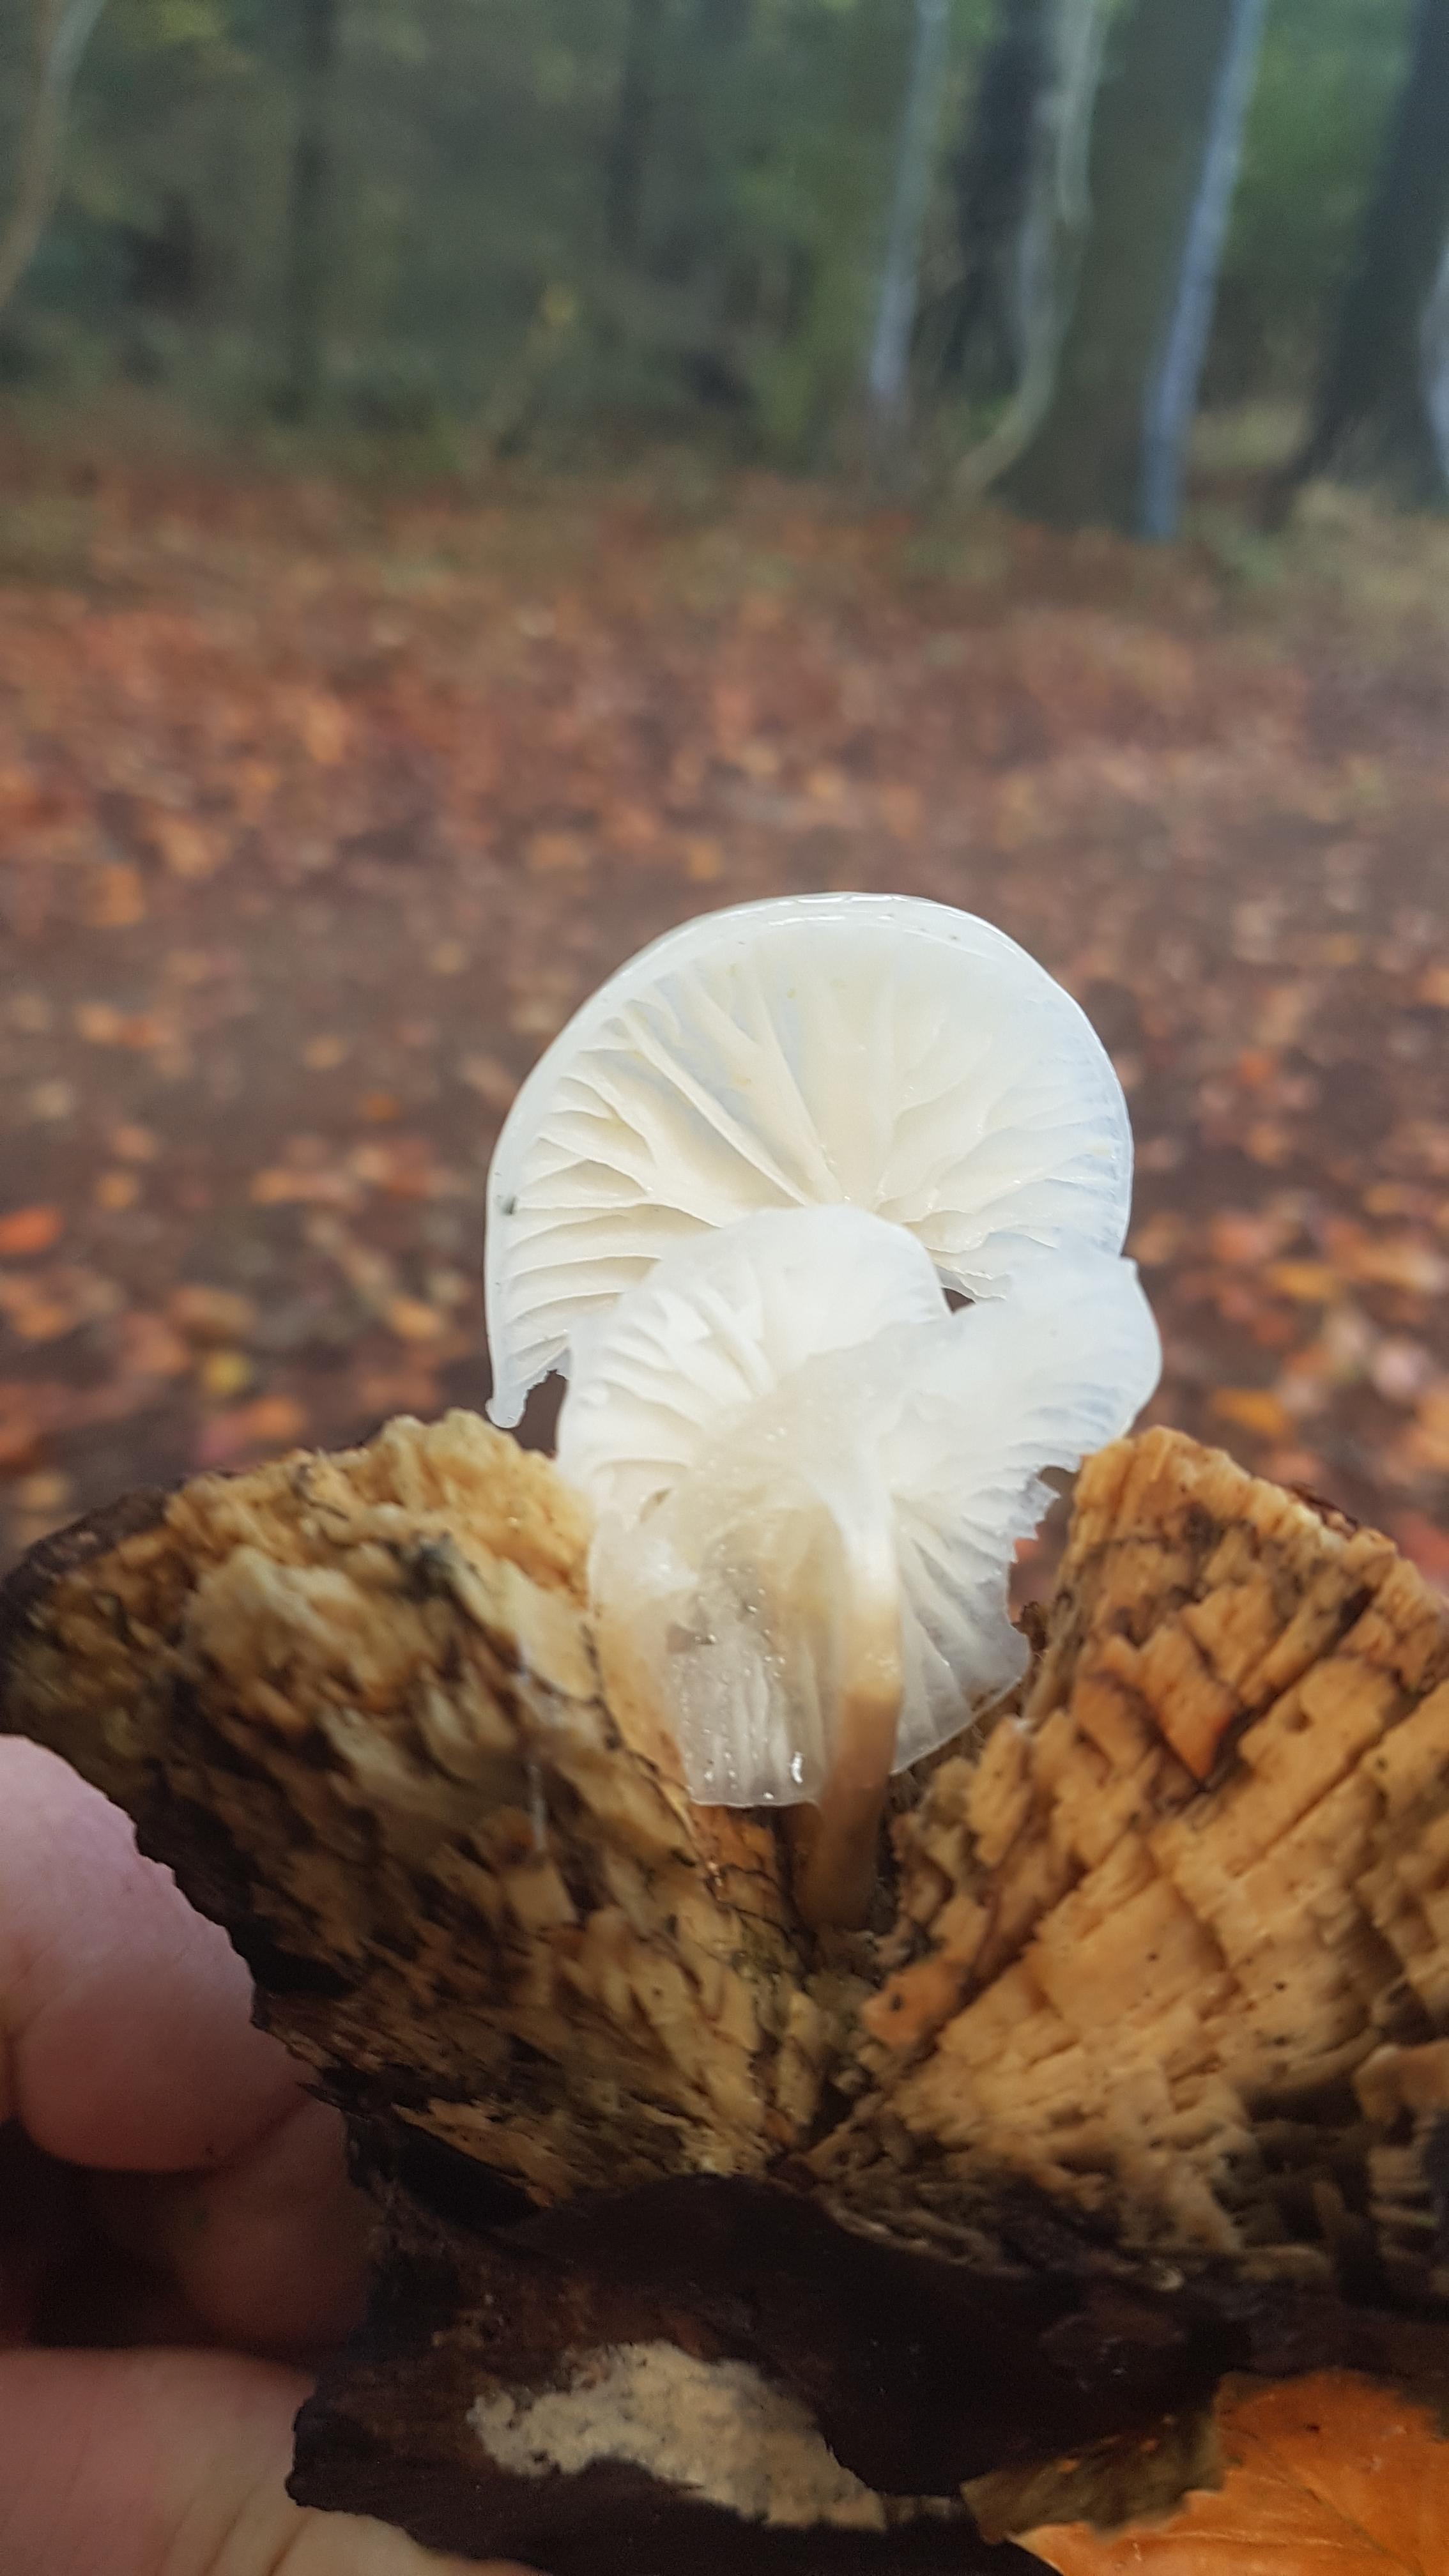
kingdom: Fungi
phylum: Basidiomycota
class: Agaricomycetes
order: Agaricales
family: Physalacriaceae
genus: Mucidula
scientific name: Mucidula mucida
